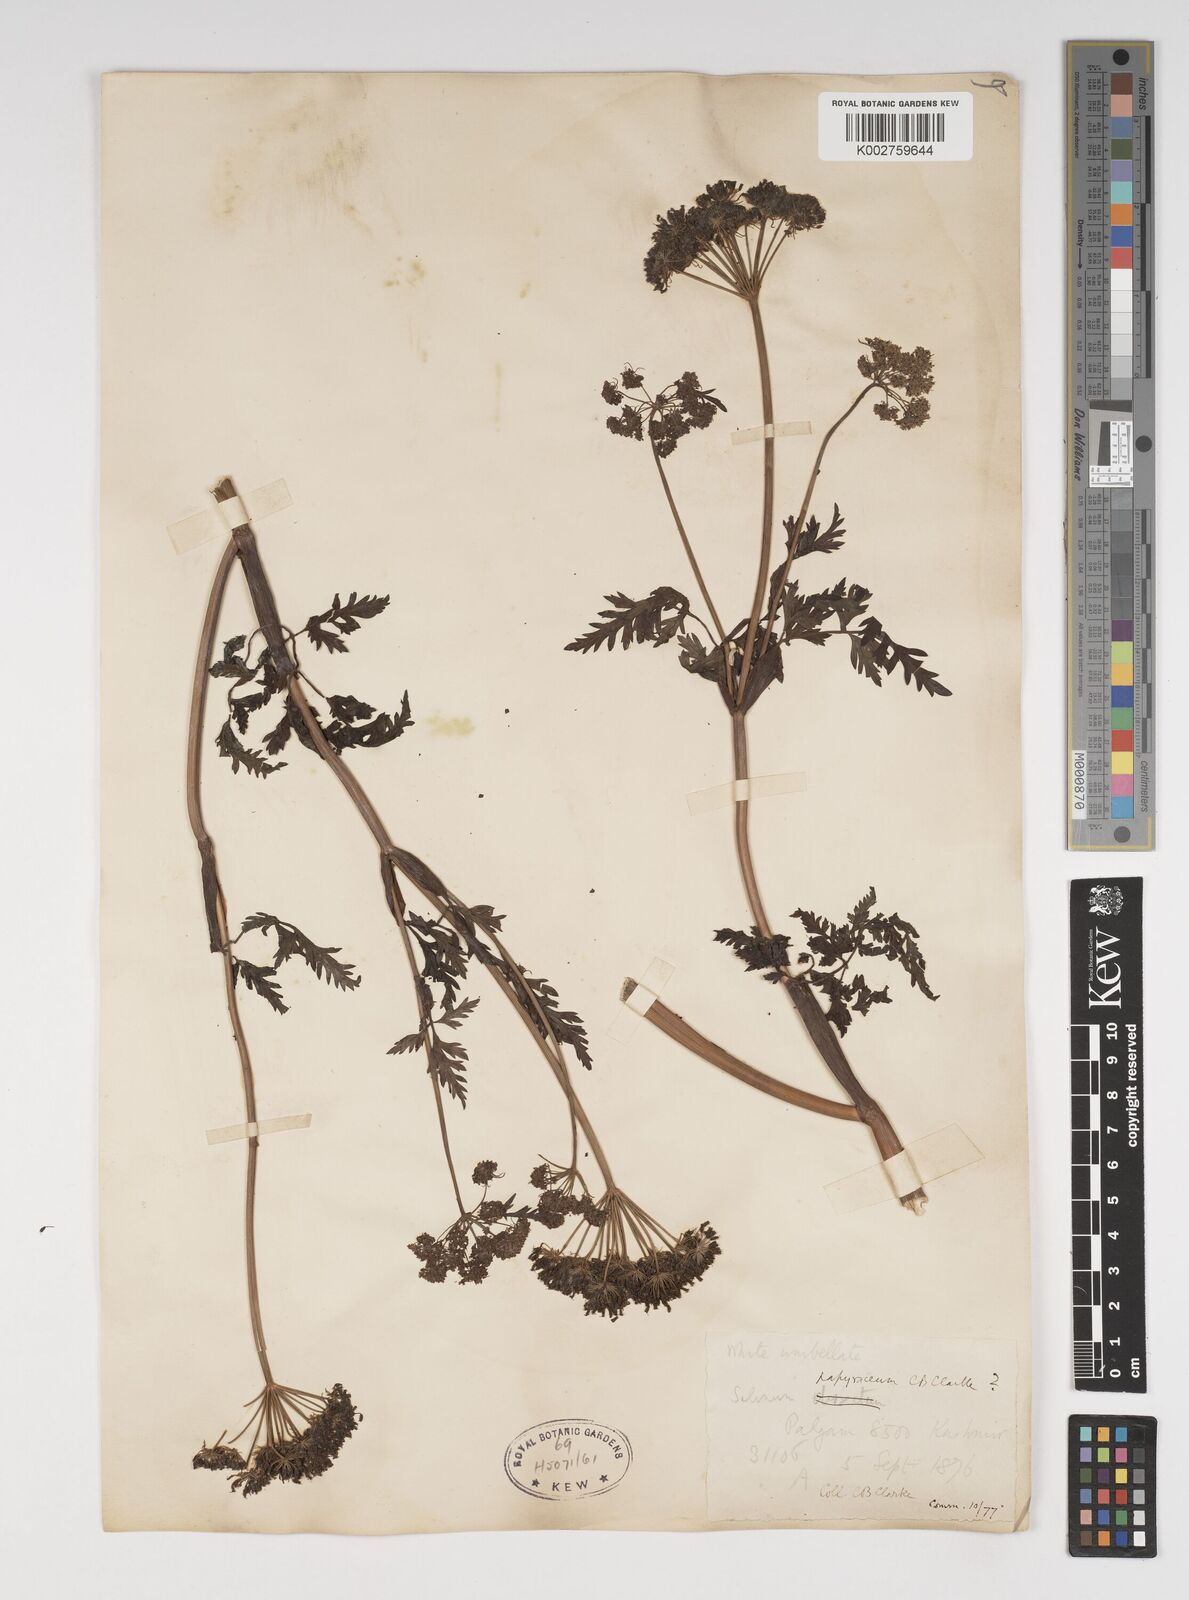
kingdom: Plantae
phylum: Tracheophyta
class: Magnoliopsida
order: Apiales
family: Apiaceae
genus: Conioselinum
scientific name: Conioselinum tataricum
